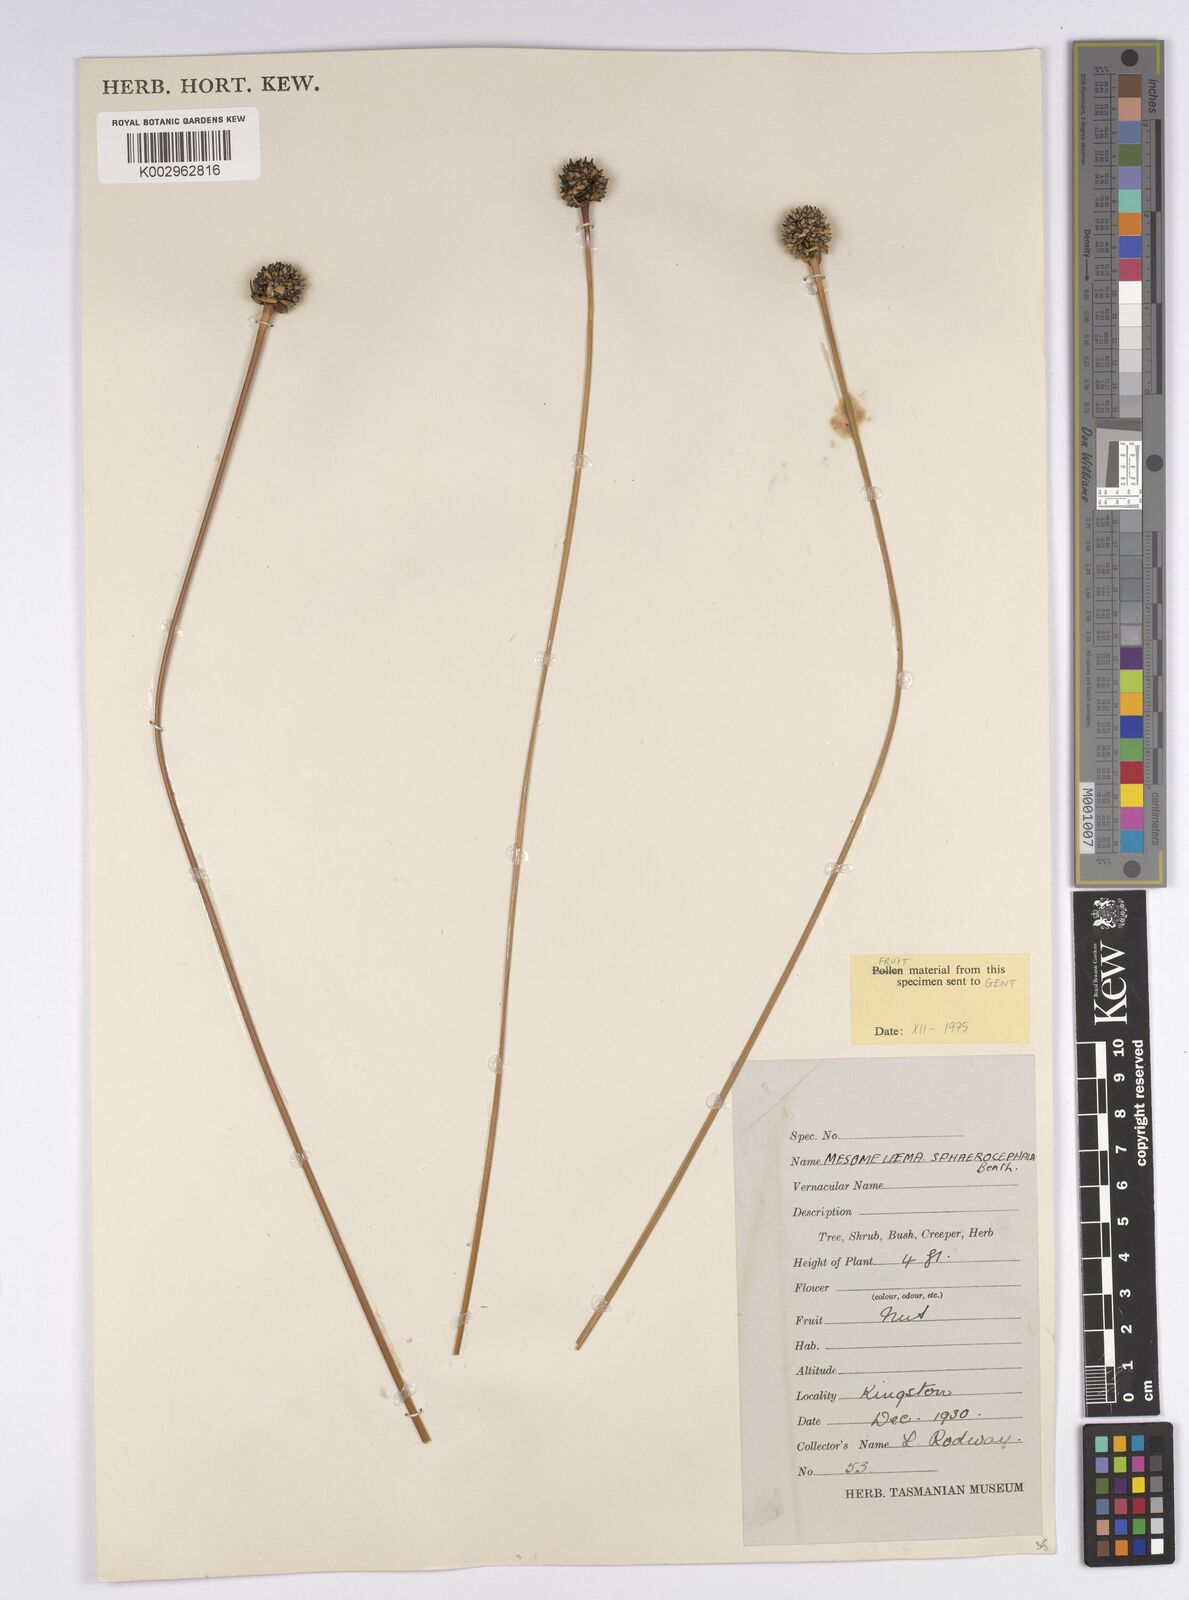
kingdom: Plantae
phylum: Tracheophyta
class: Liliopsida
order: Poales
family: Cyperaceae
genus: Gymnoschoenus
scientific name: Gymnoschoenus sphaerocephalus
